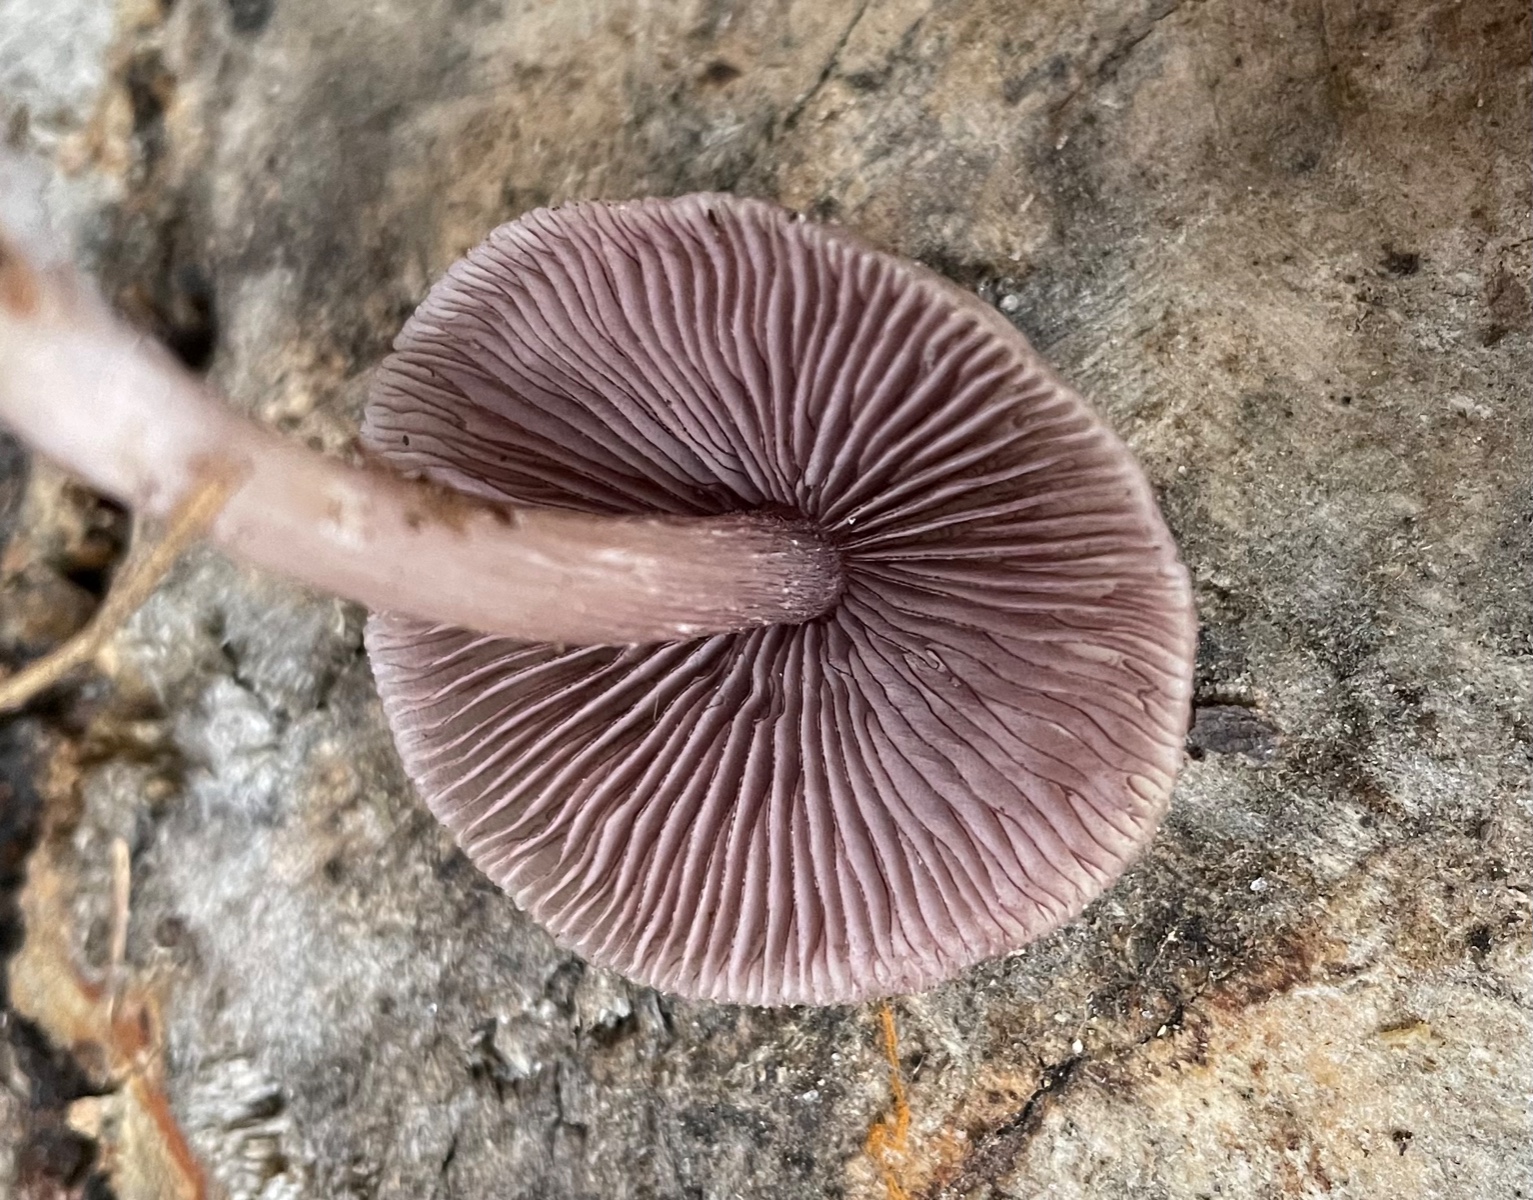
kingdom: Fungi
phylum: Basidiomycota
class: Agaricomycetes
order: Agaricales
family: Mycenaceae
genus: Mycena
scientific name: Mycena pelianthina
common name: mørkbladet huesvamp
